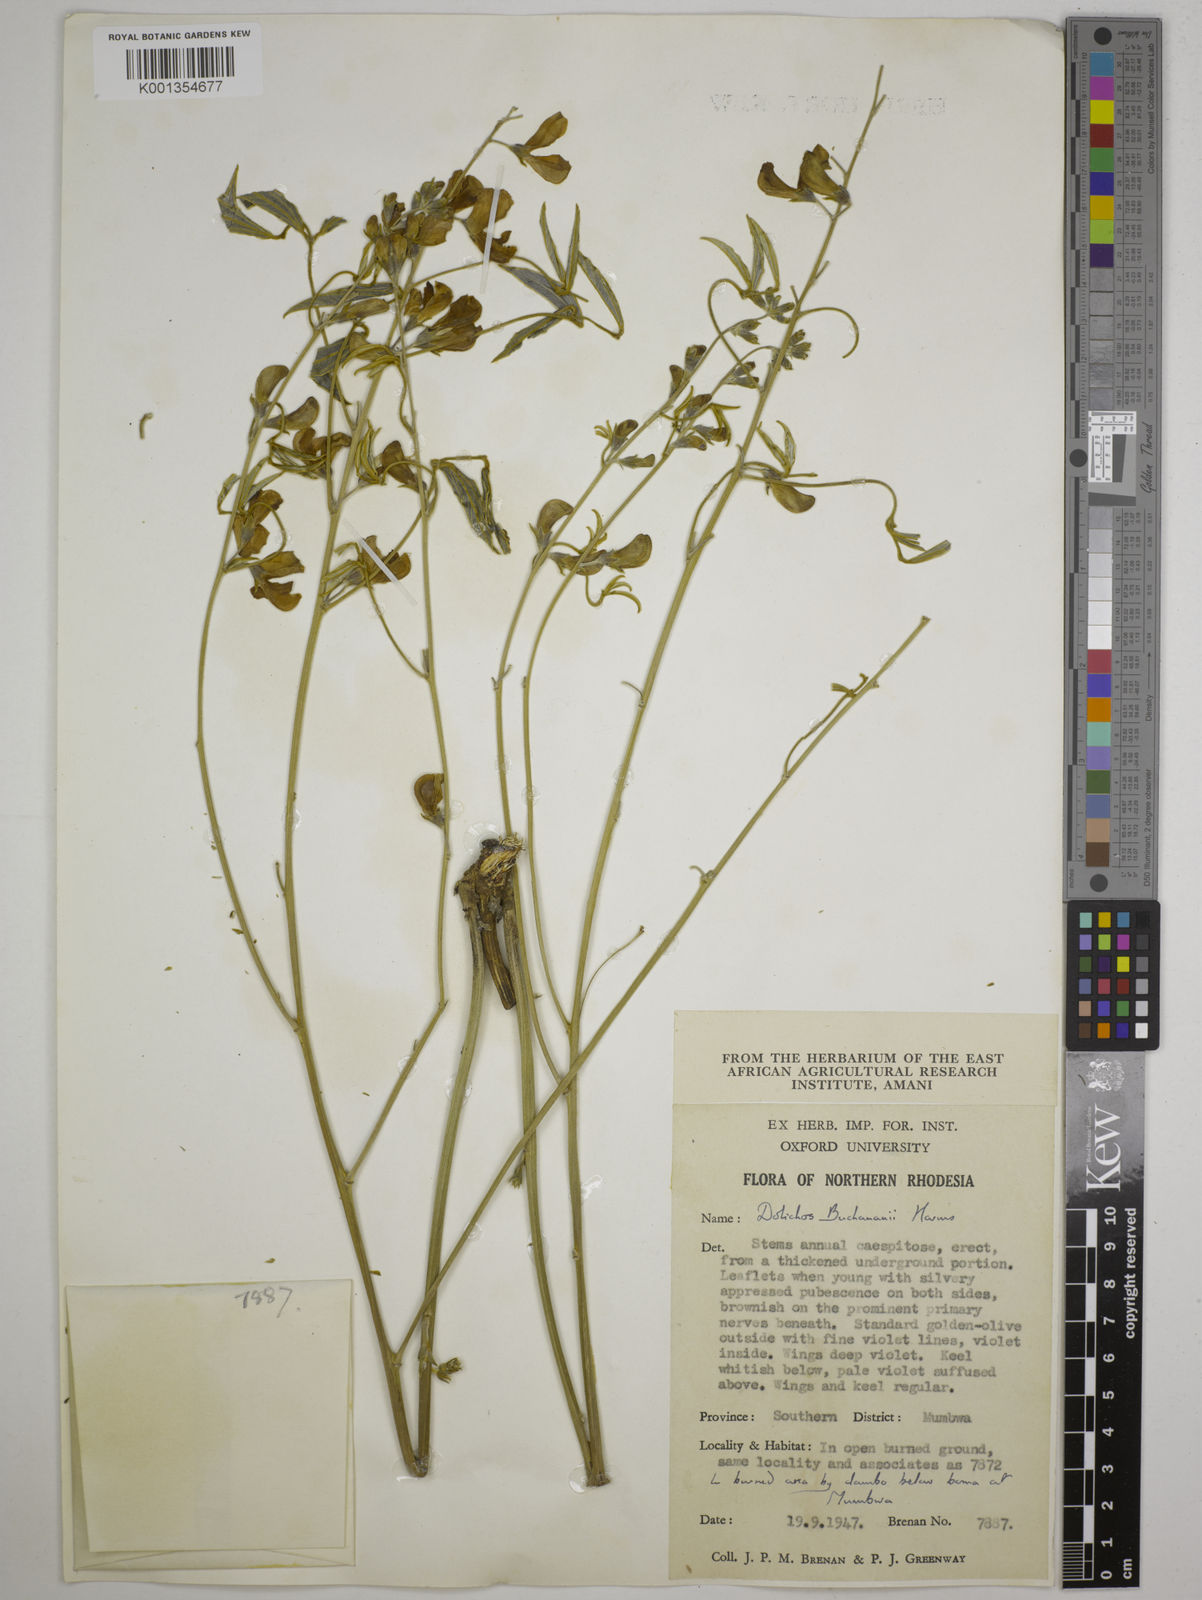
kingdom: Plantae
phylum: Tracheophyta
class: Magnoliopsida
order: Fabales
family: Fabaceae
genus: Dolichos
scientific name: Dolichos kilimandscharicus
